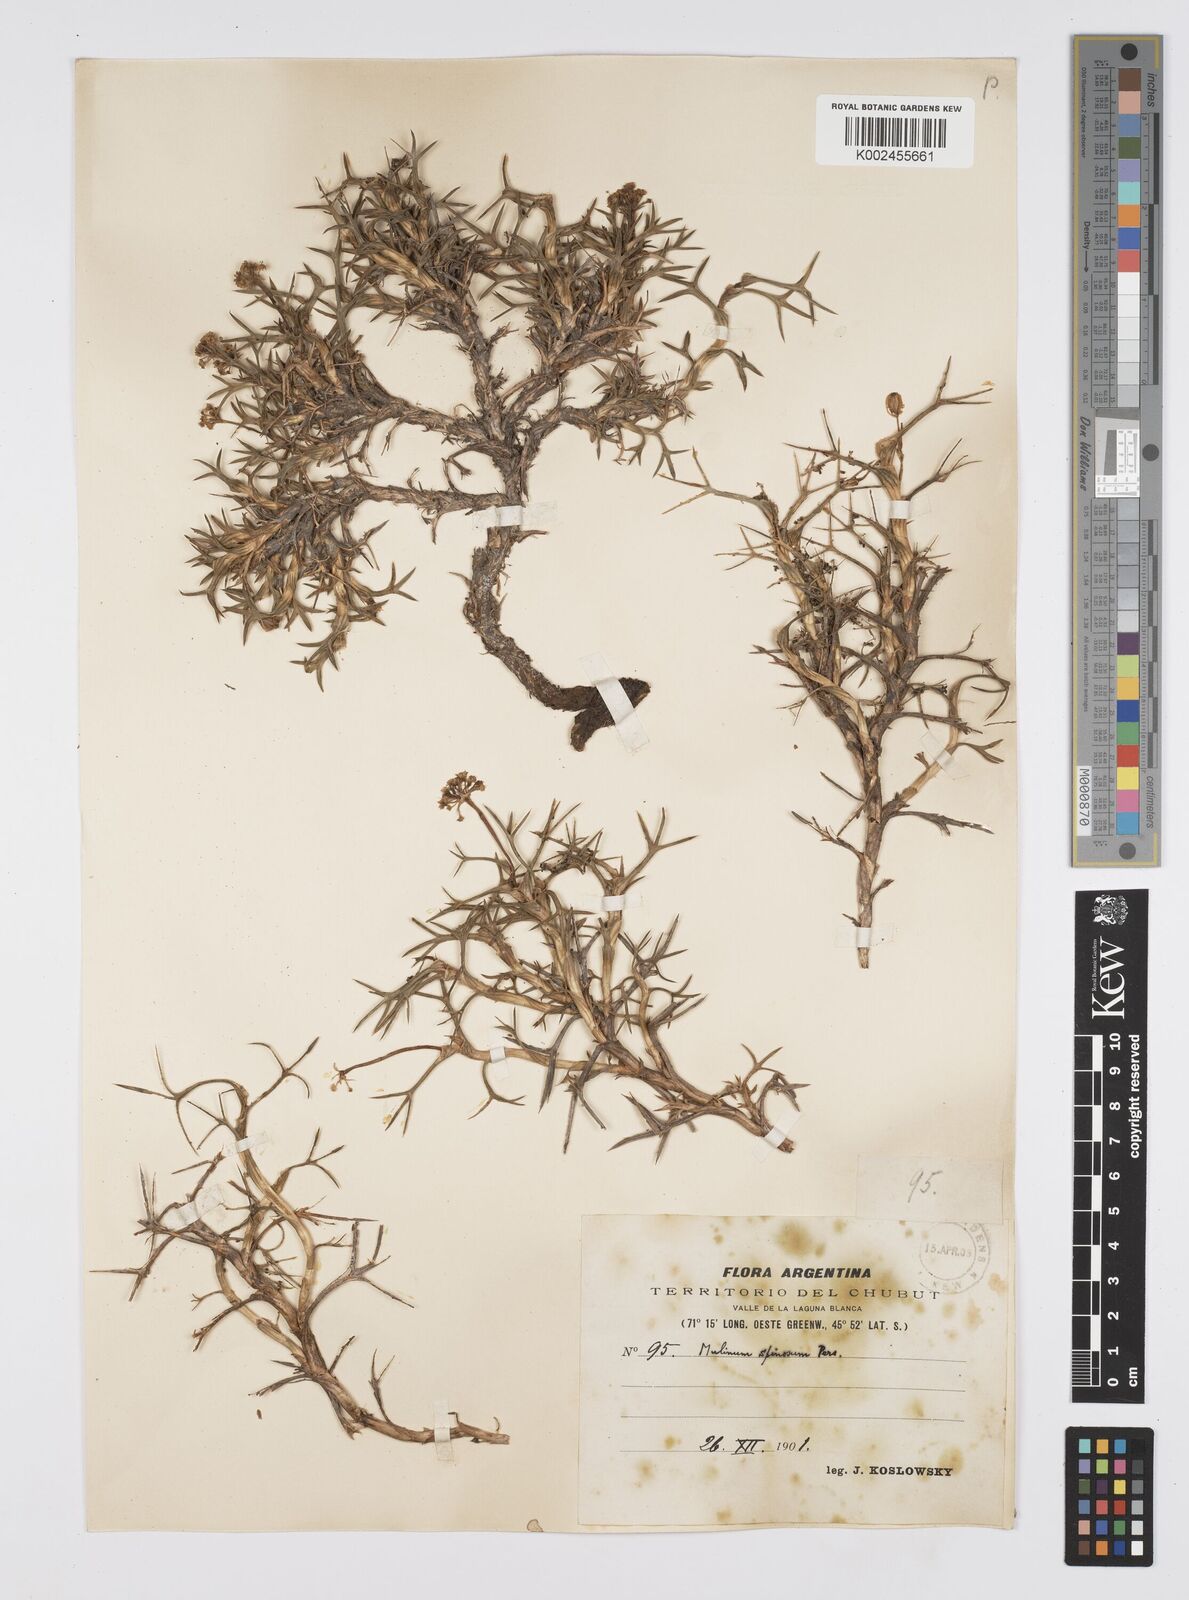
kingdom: Plantae
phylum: Tracheophyta
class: Magnoliopsida
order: Apiales
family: Apiaceae
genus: Azorella
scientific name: Azorella prolifera
